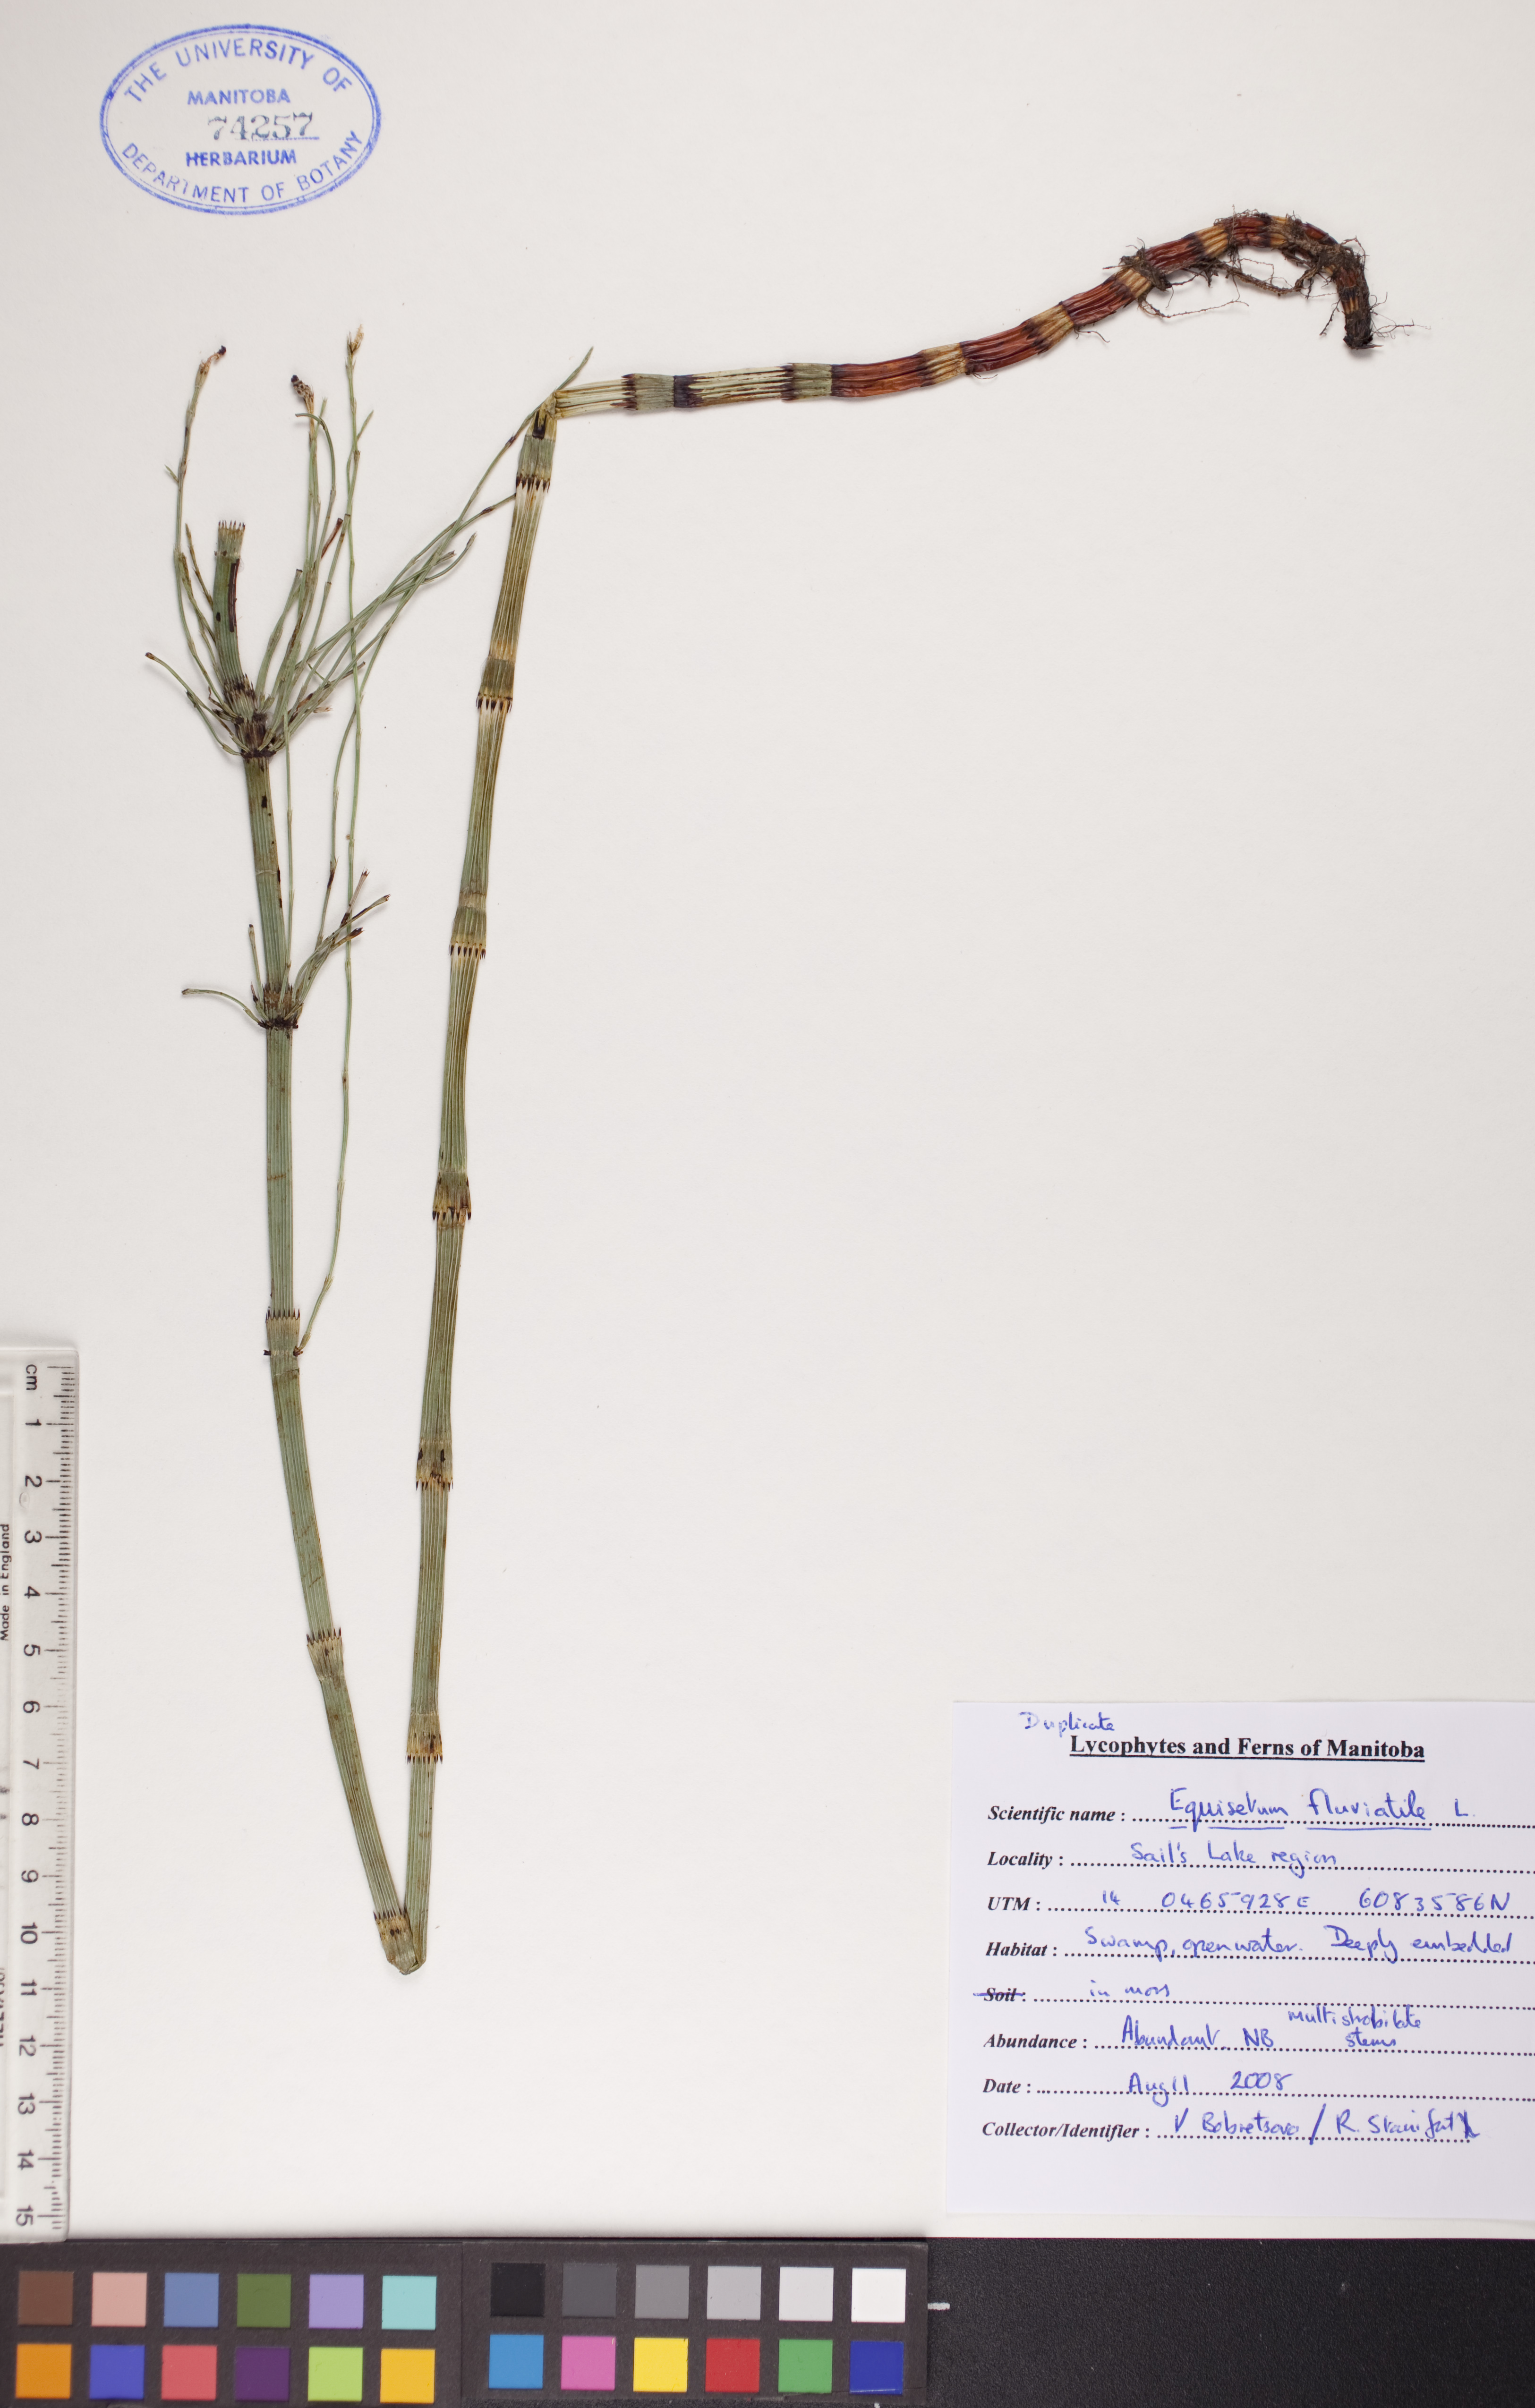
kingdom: Plantae
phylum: Tracheophyta
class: Polypodiopsida
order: Equisetales
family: Equisetaceae
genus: Equisetum
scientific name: Equisetum fluviatile
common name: Water horsetail
